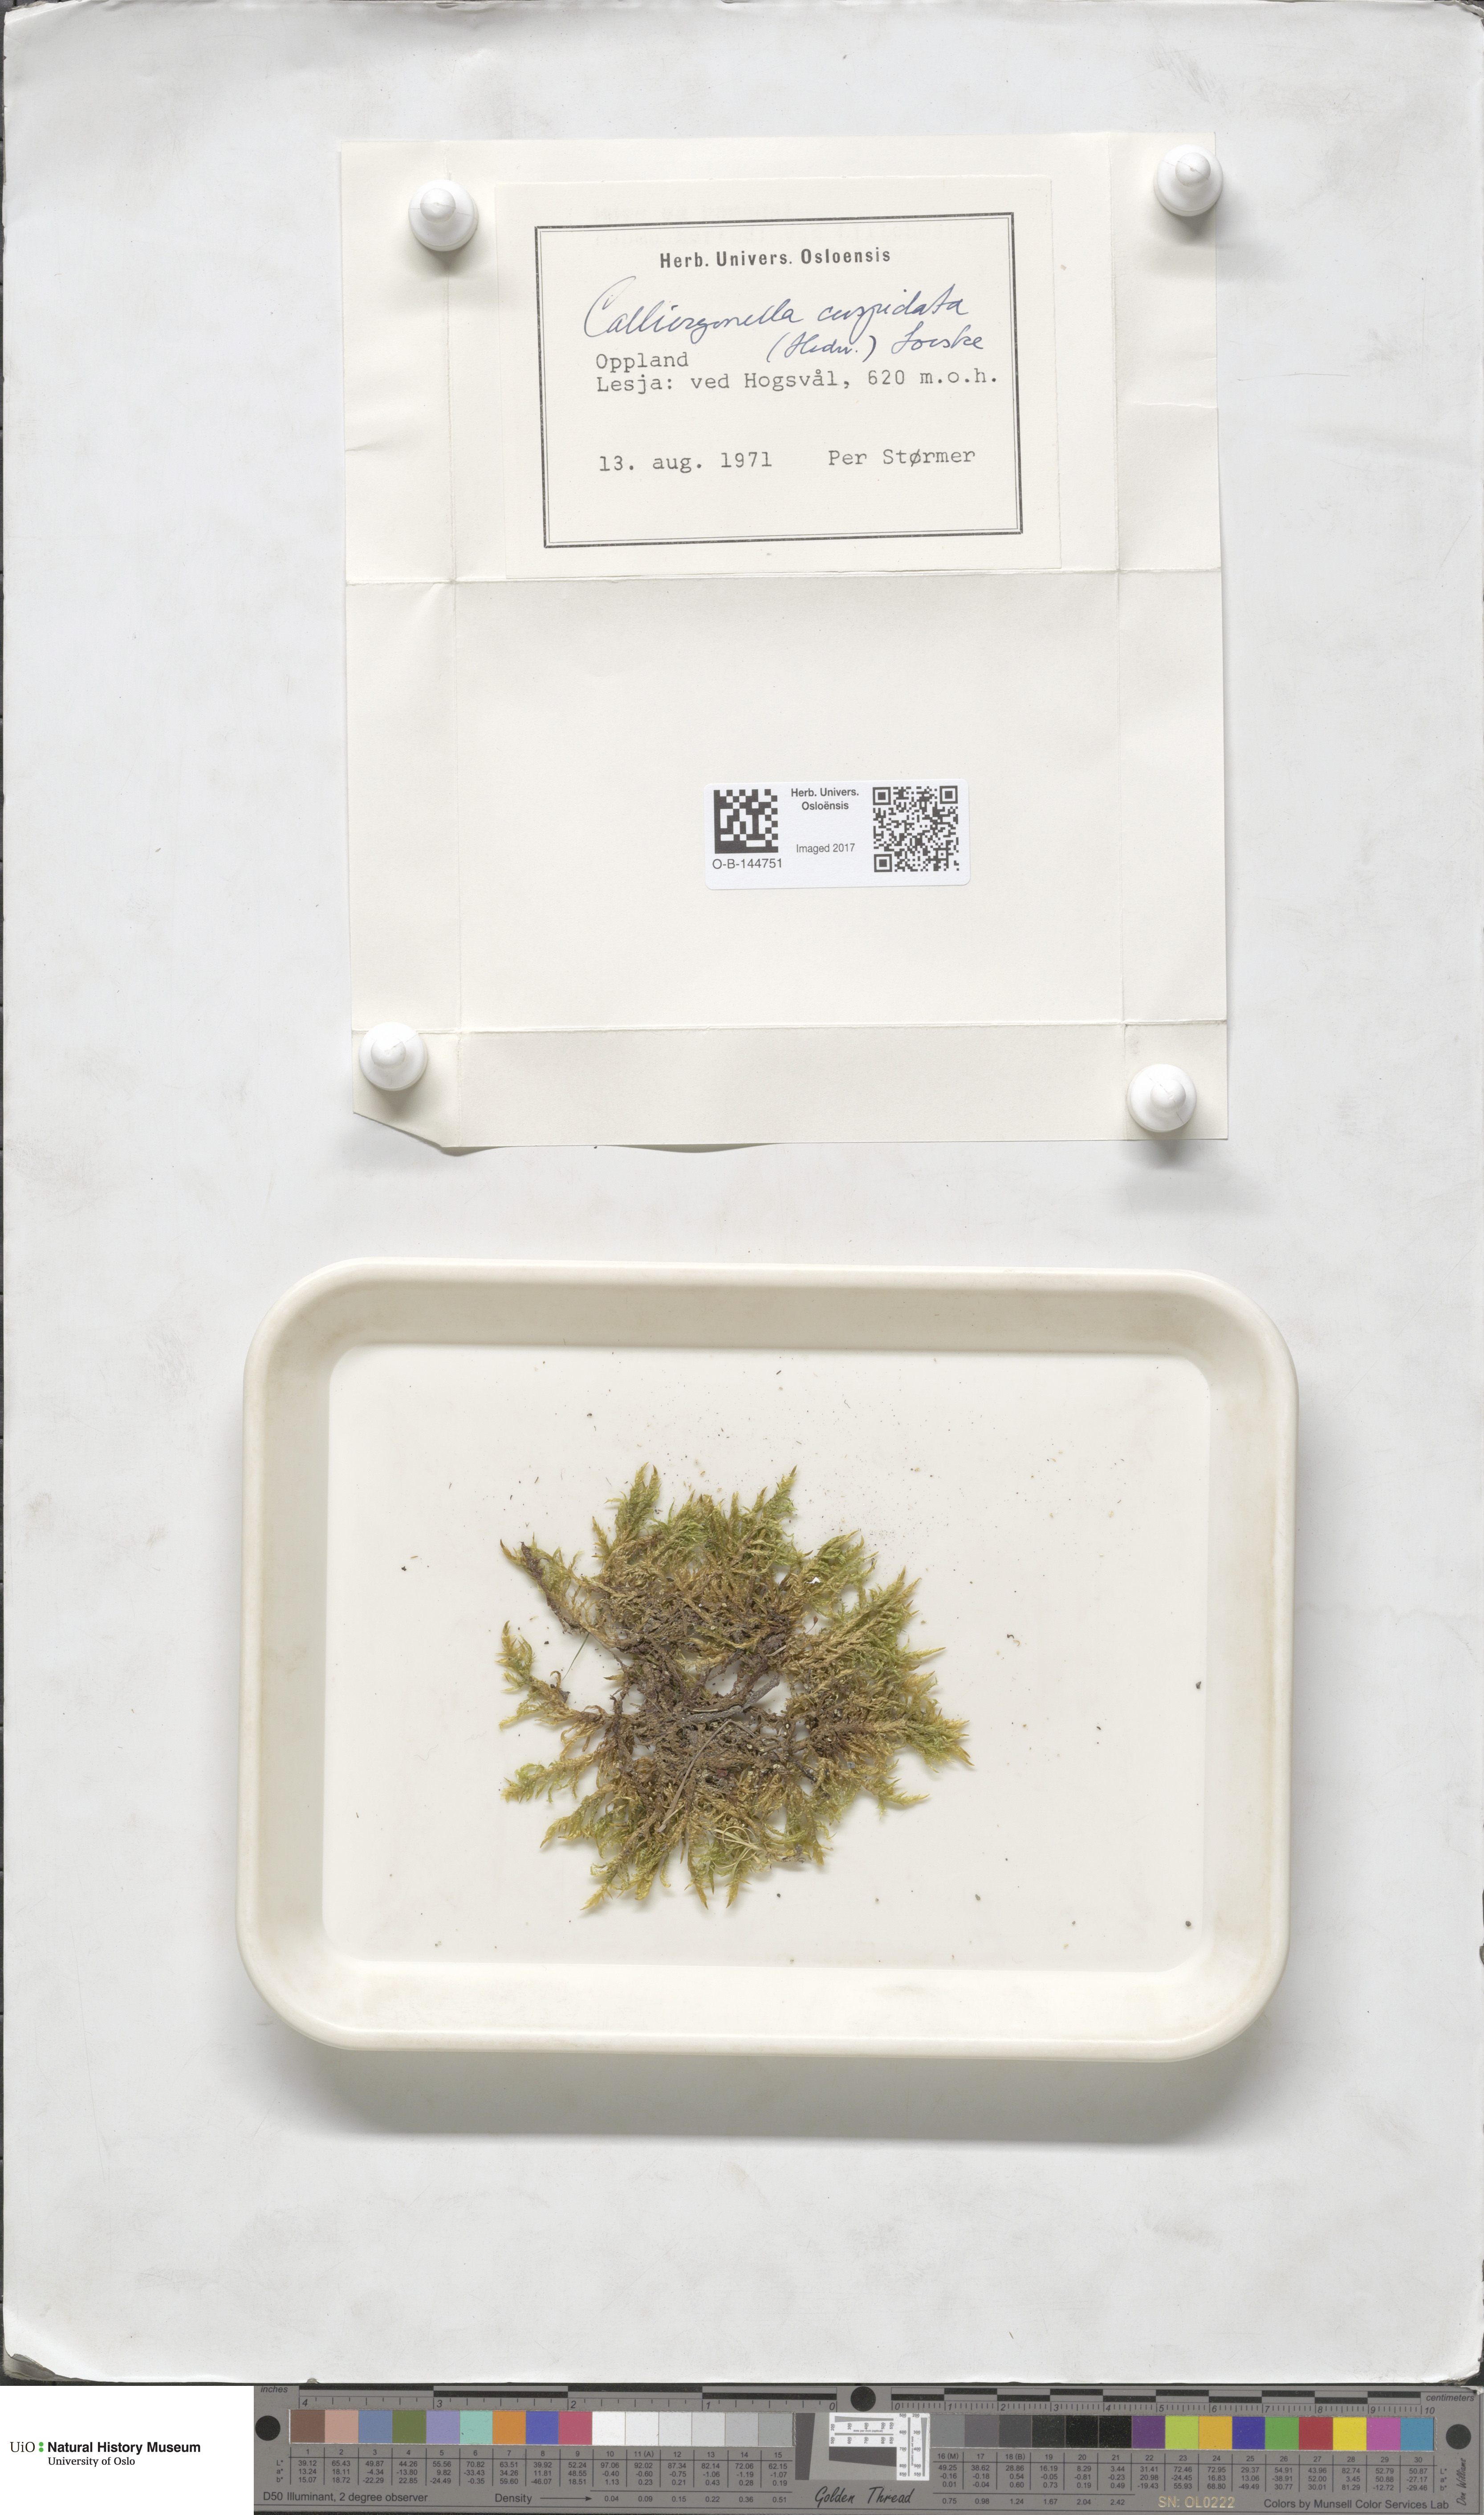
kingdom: Plantae
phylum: Bryophyta
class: Bryopsida
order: Hypnales
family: Pylaisiaceae
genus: Calliergonella
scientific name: Calliergonella cuspidata
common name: Common large wetland moss
